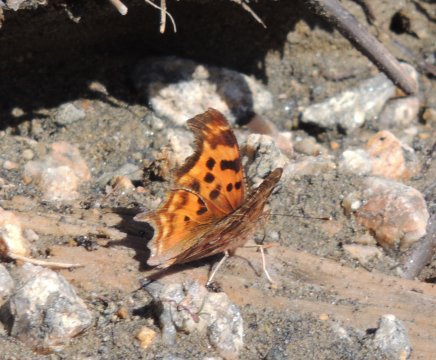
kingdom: Animalia
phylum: Arthropoda
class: Insecta
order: Lepidoptera
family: Nymphalidae
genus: Polygonia
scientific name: Polygonia satyrus
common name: Satyr Comma
